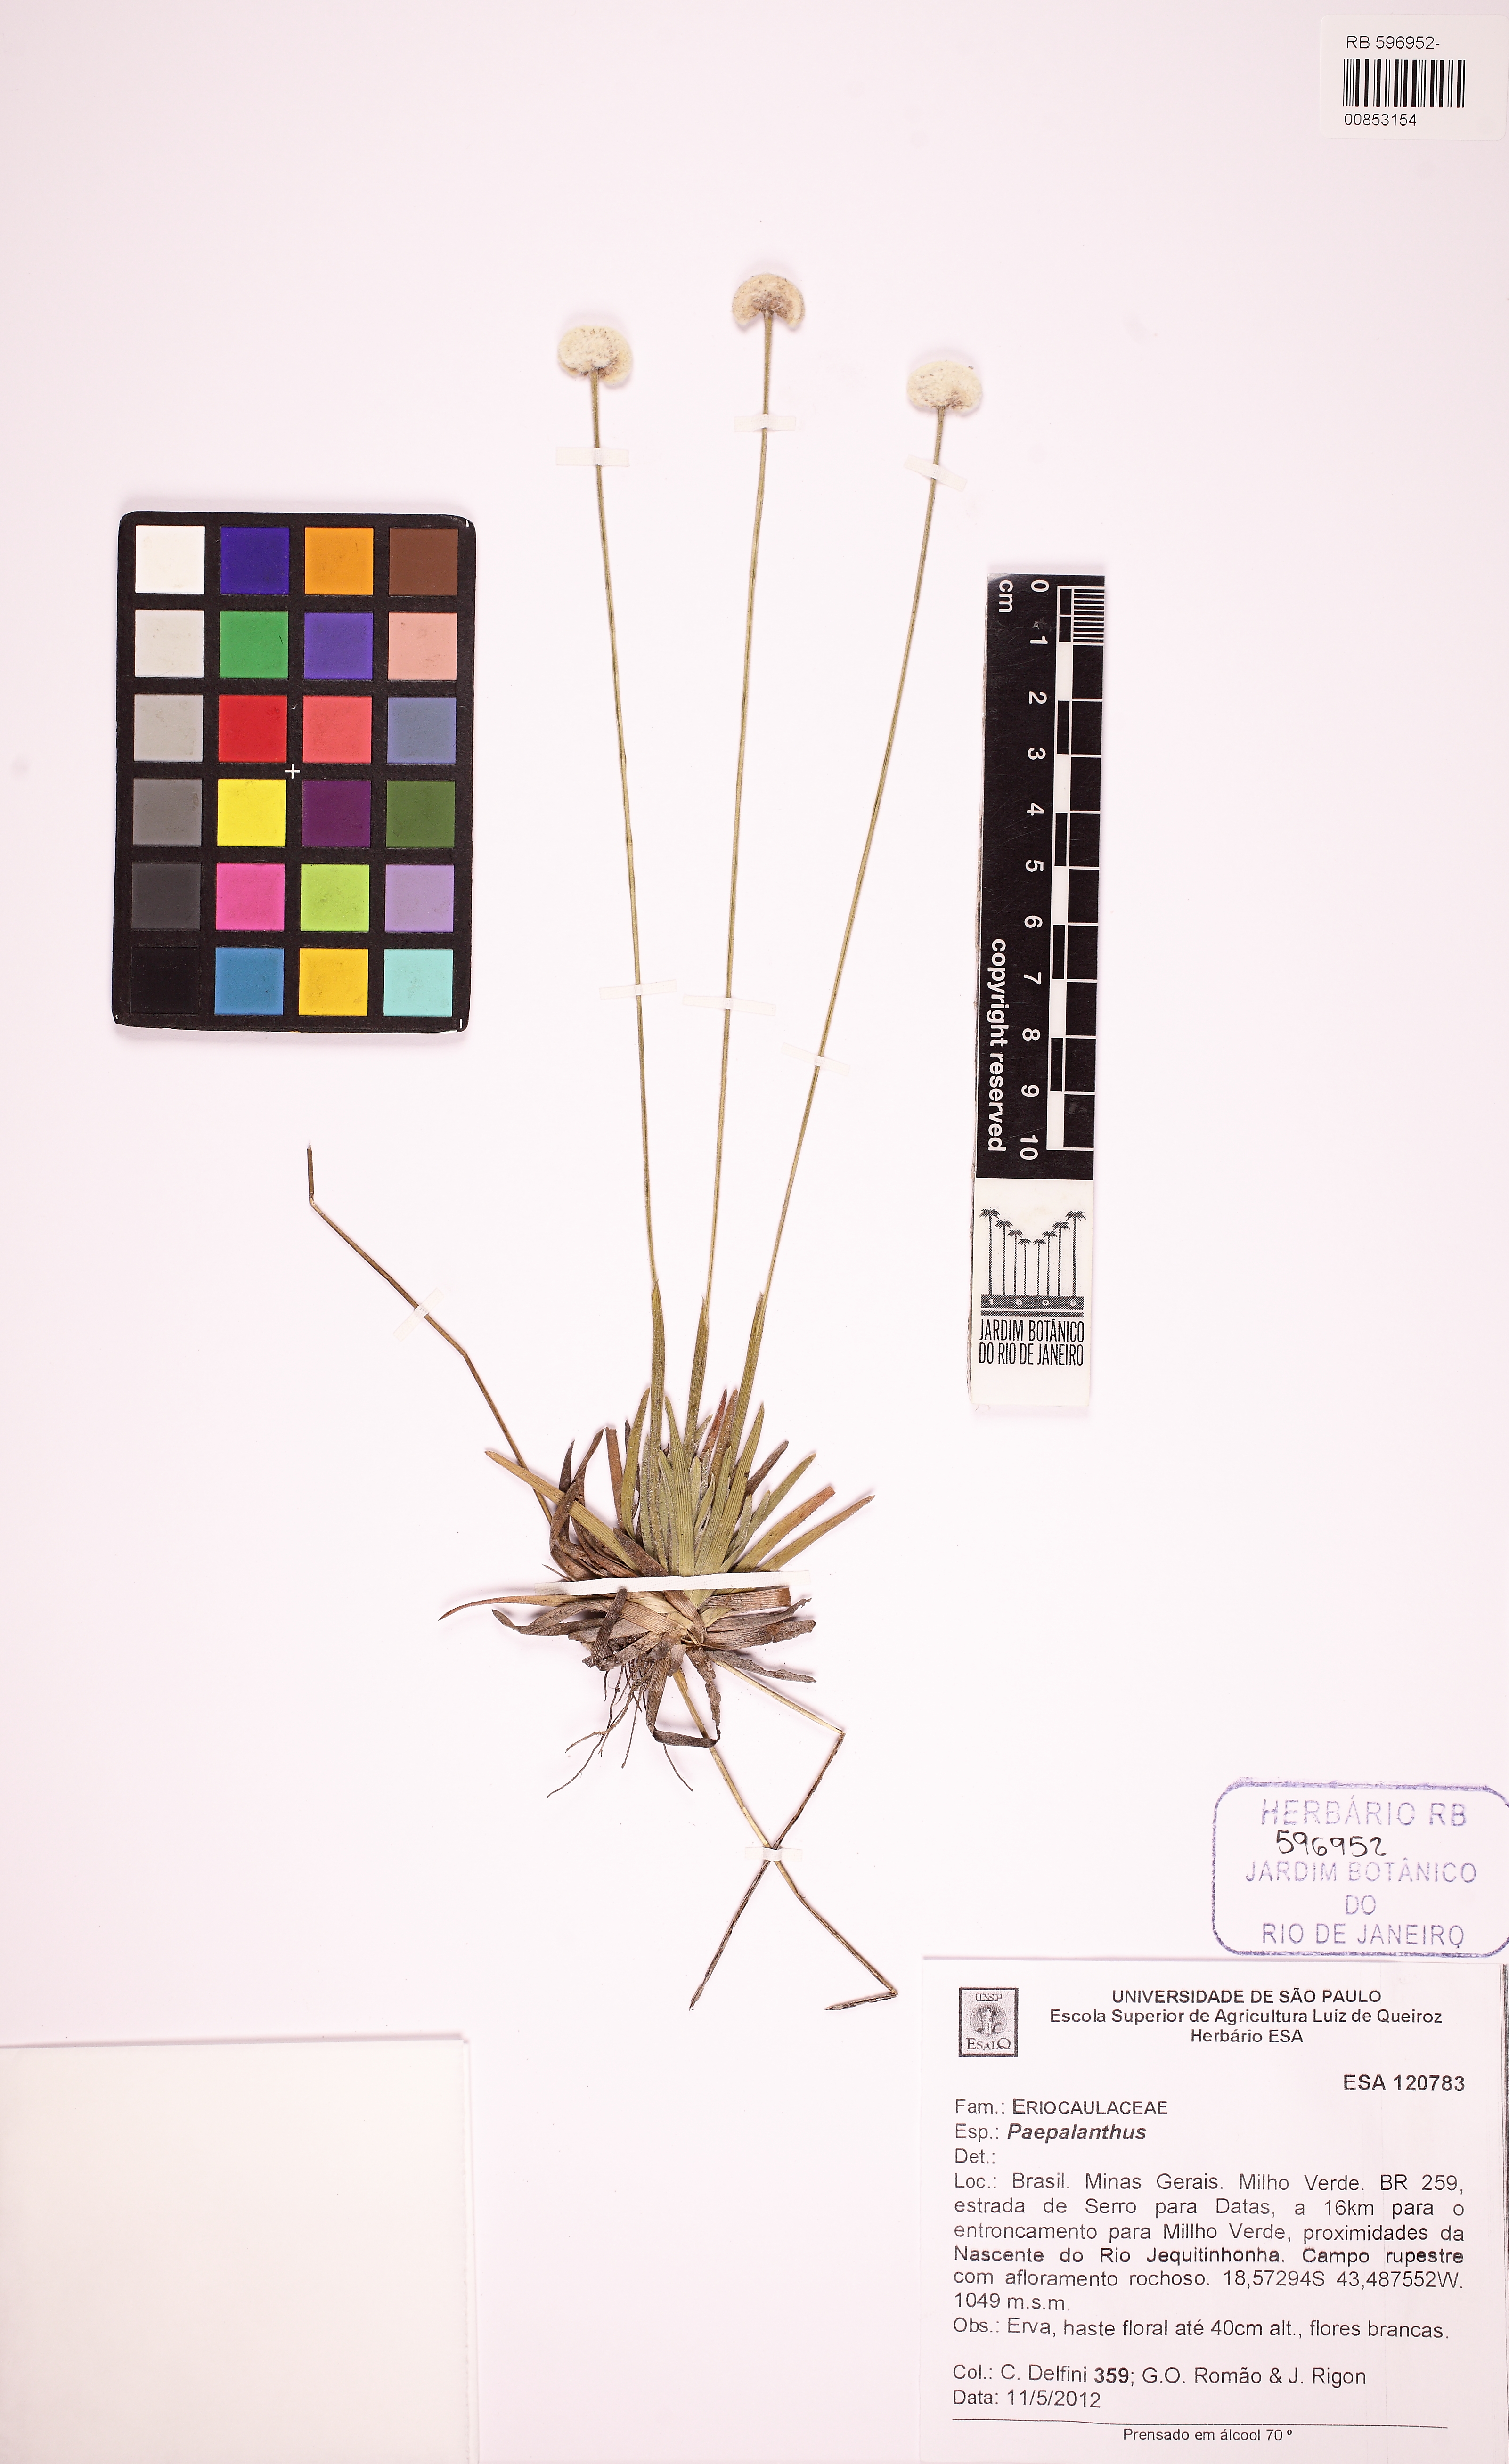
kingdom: Plantae
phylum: Tracheophyta
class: Liliopsida
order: Poales
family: Eriocaulaceae
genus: Paepalanthus
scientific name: Paepalanthus pedunculatus
